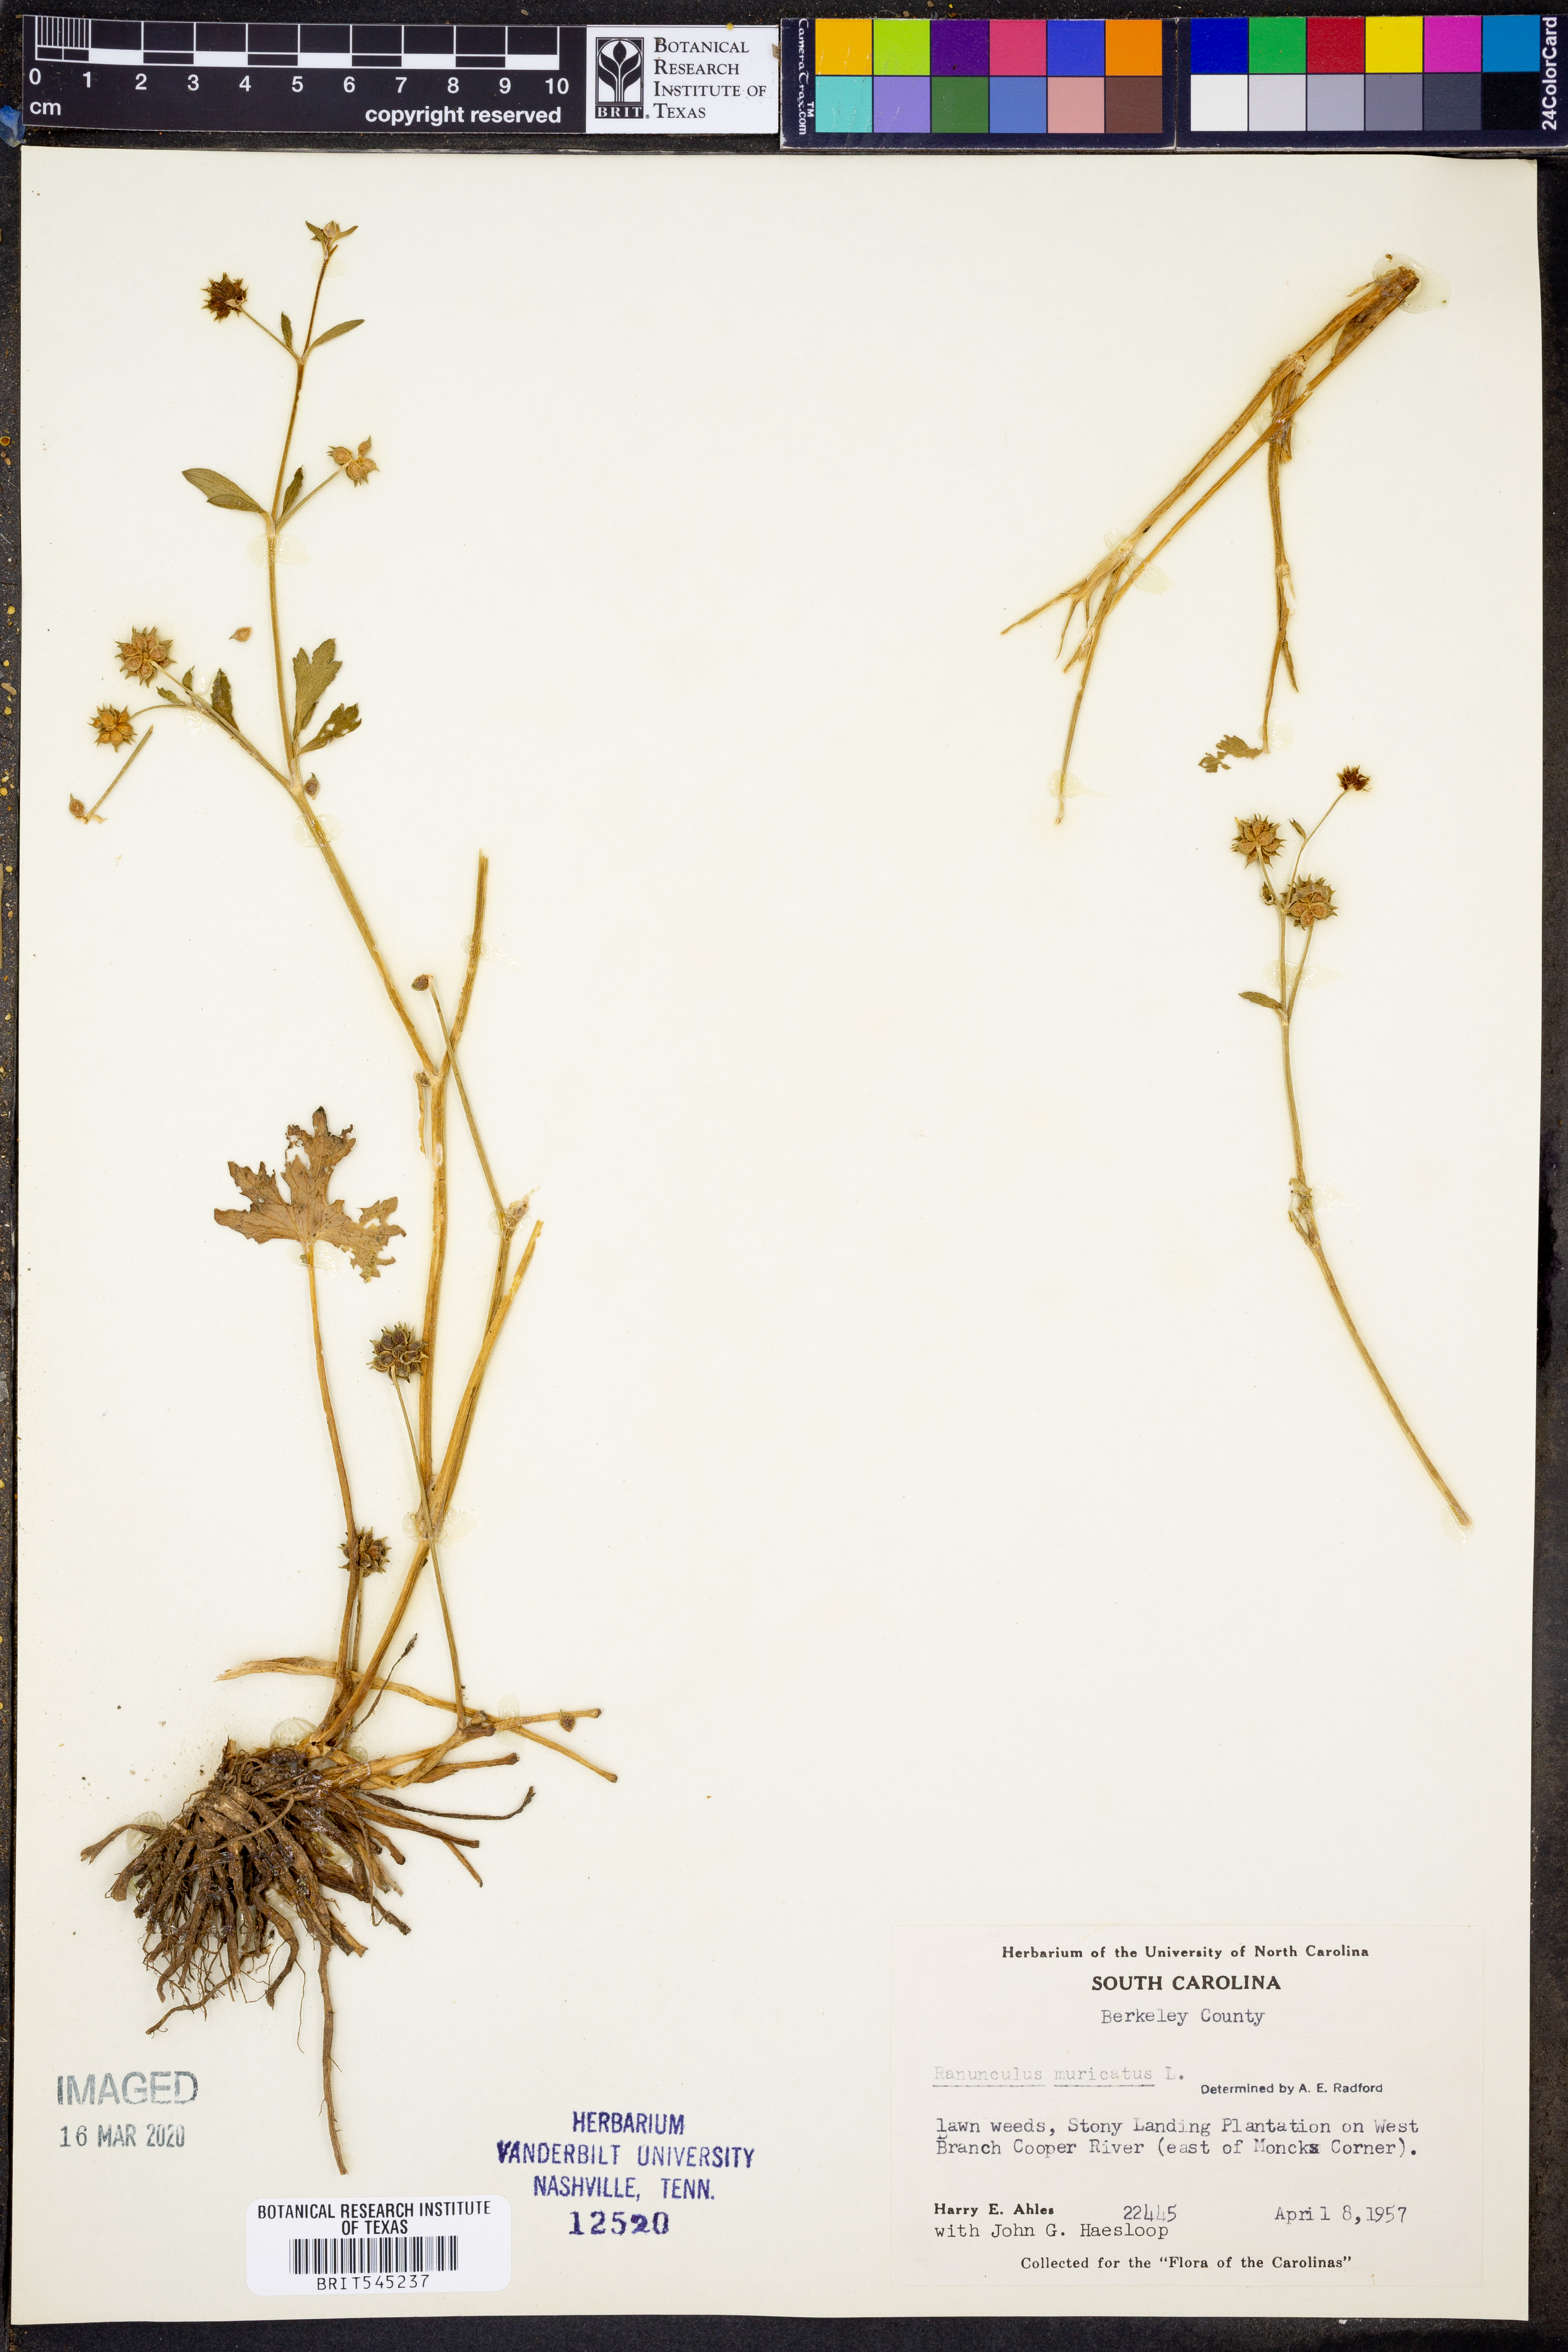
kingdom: Plantae
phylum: Tracheophyta
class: Magnoliopsida
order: Ranunculales
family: Ranunculaceae
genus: Ranunculus
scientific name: Ranunculus muricatus
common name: Rough-fruited buttercup
